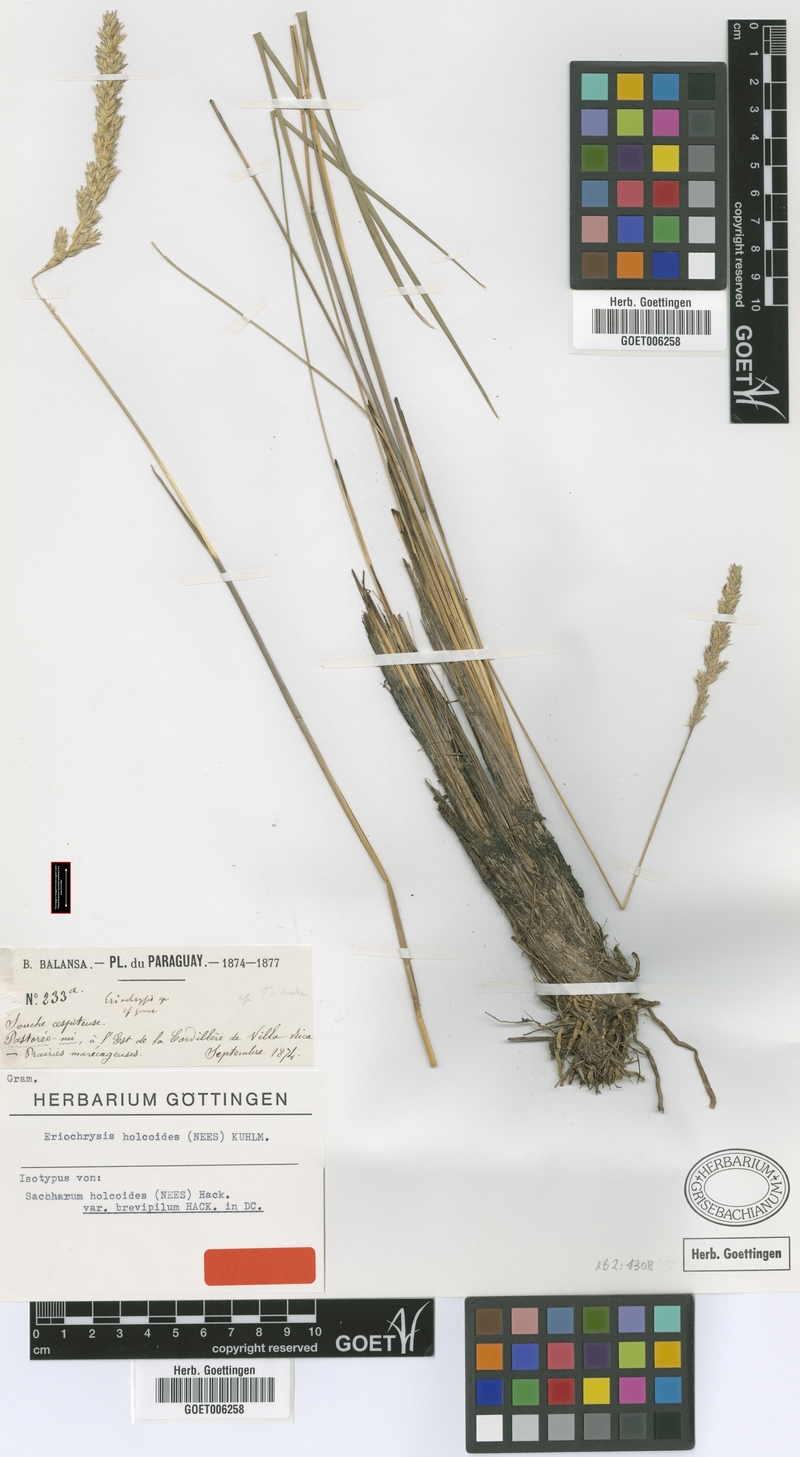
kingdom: Plantae
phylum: Tracheophyta
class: Liliopsida
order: Poales
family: Poaceae
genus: Eriochrysis
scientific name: Eriochrysis holcoides
